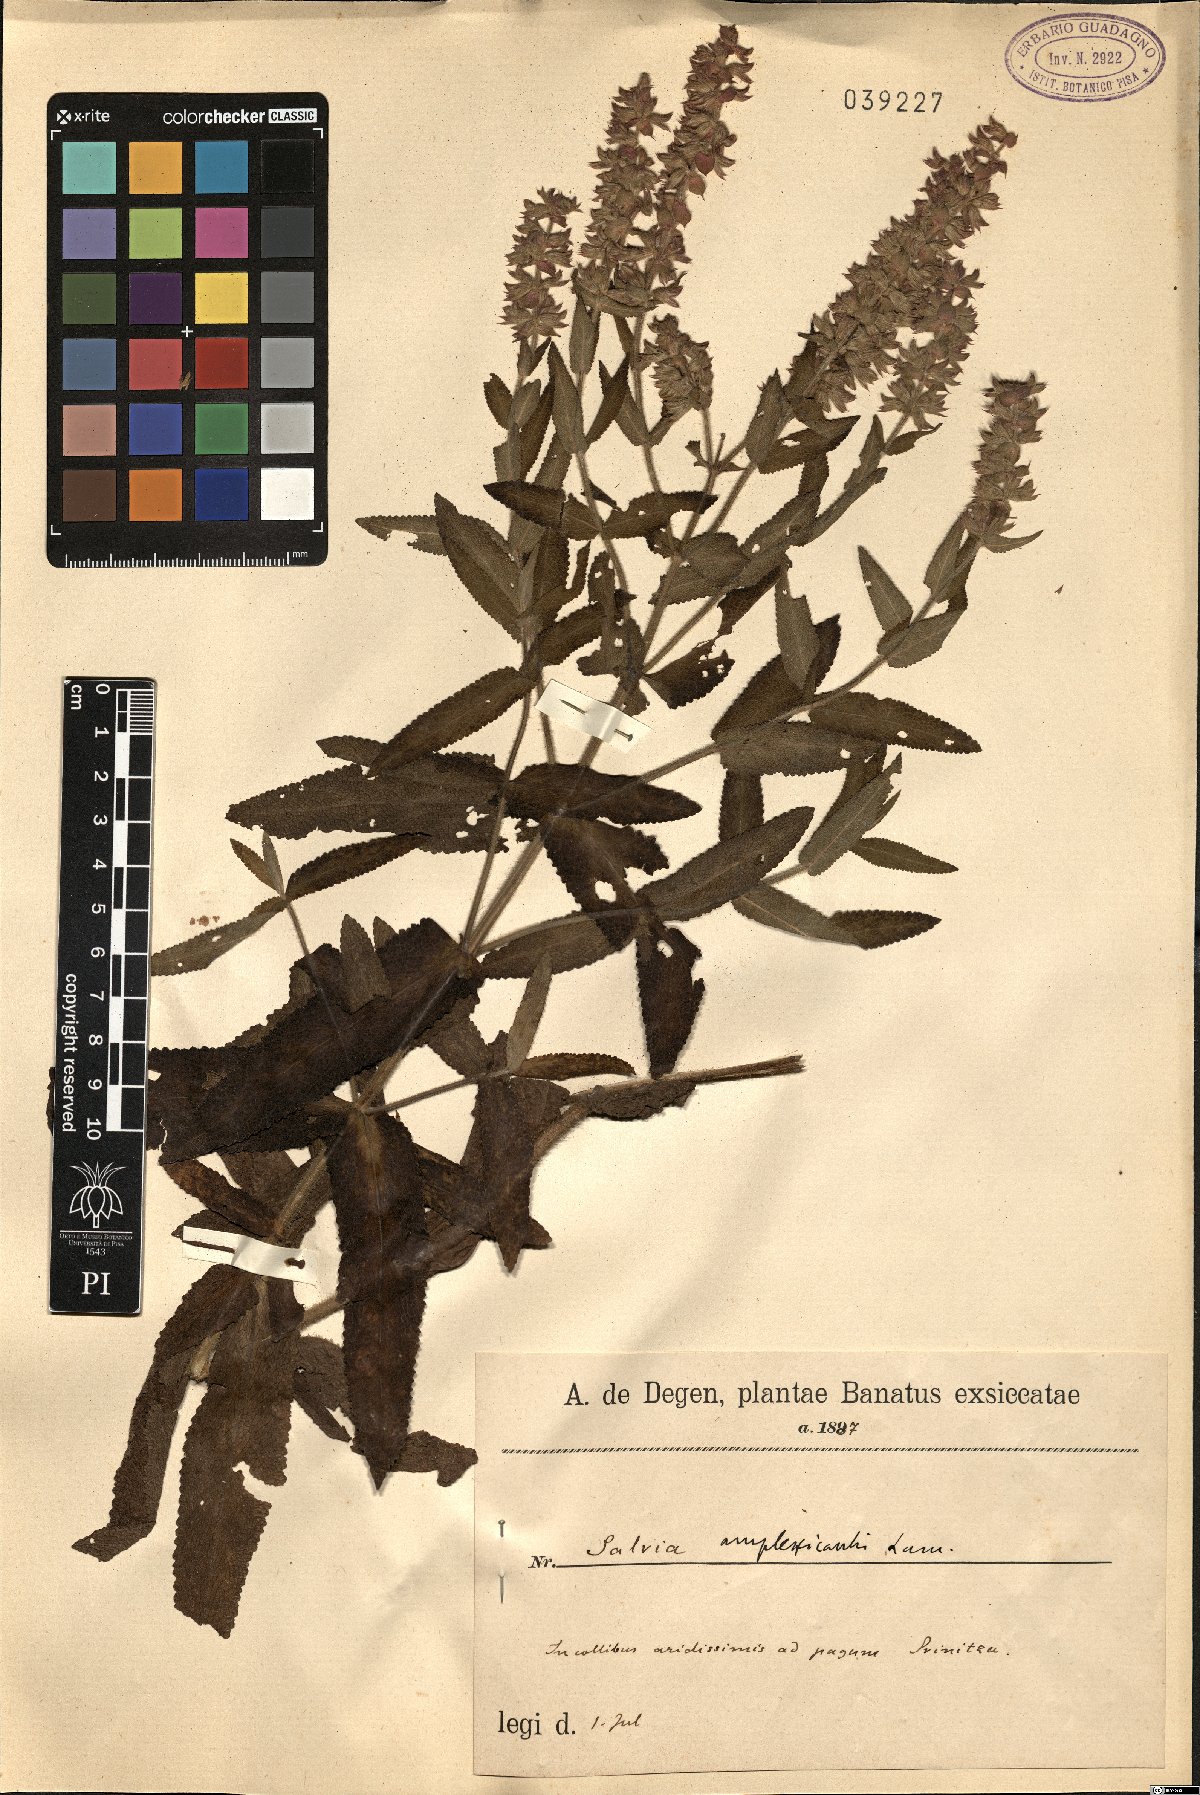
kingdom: Plantae
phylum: Tracheophyta
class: Magnoliopsida
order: Lamiales
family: Lamiaceae
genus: Salvia
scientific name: Salvia amplexicaulis
